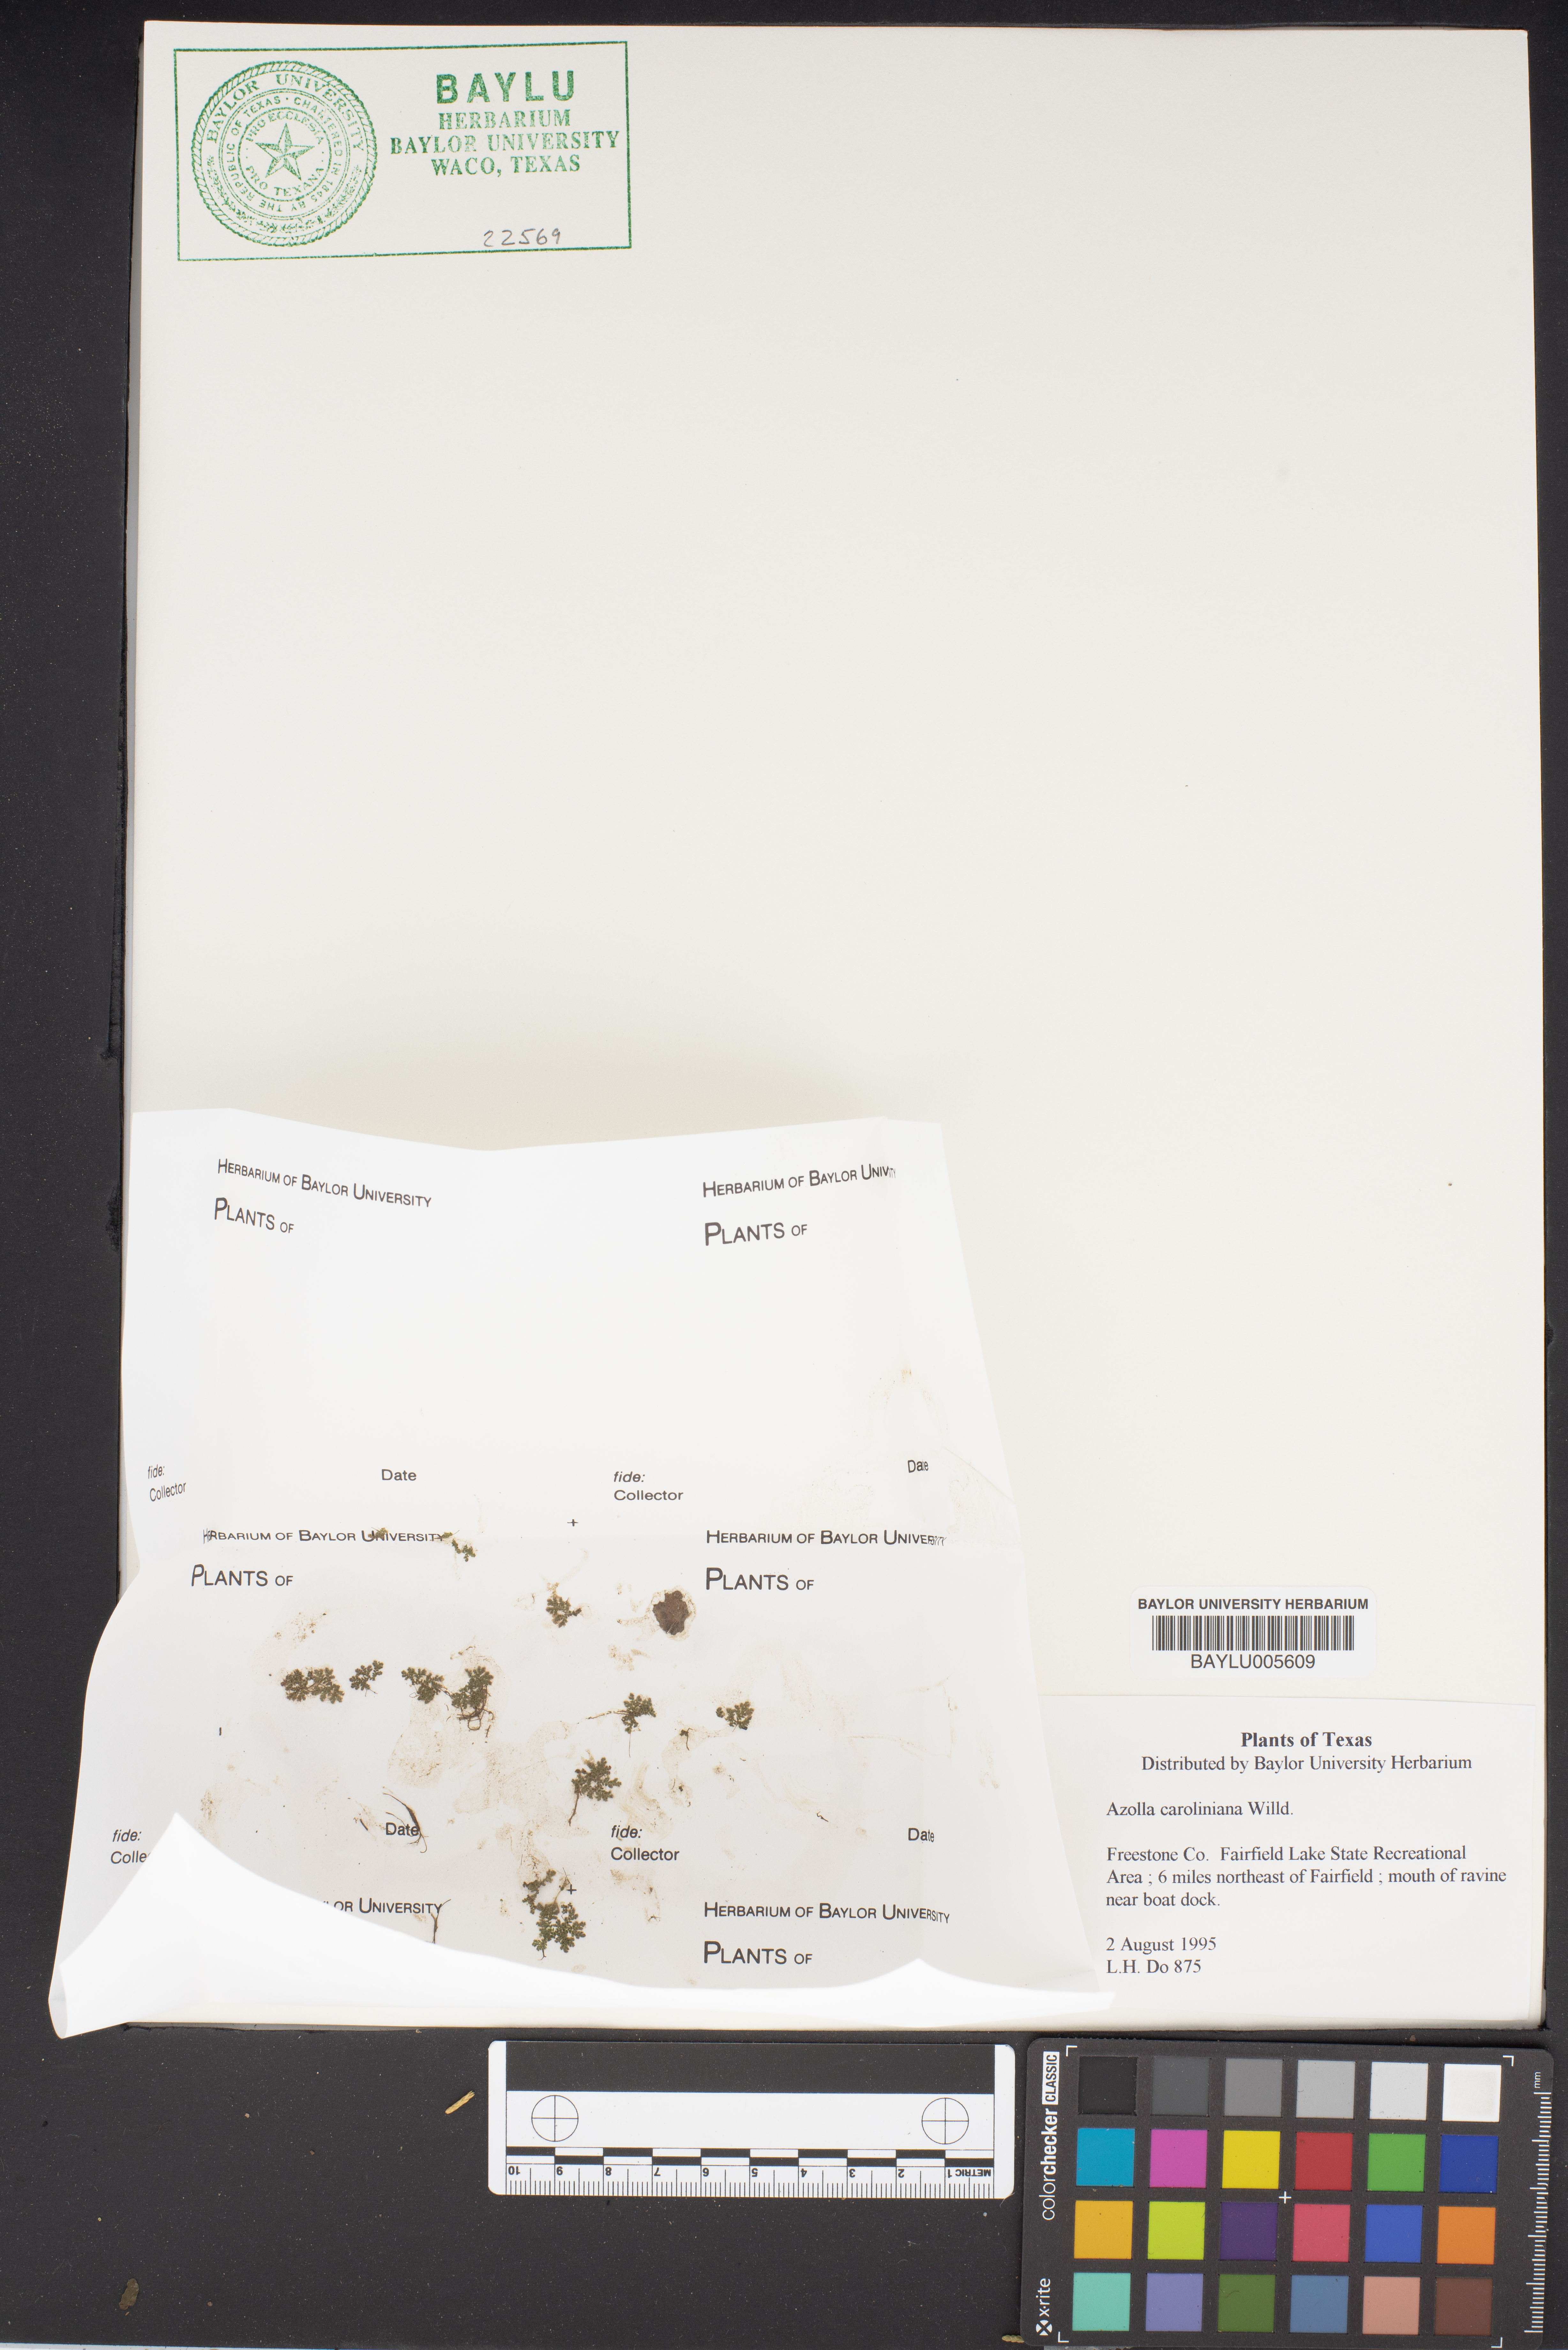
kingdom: Plantae
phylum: Tracheophyta
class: Polypodiopsida
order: Salviniales
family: Salviniaceae
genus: Azolla
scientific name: Azolla caroliniana
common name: Carolina mosquitofern
